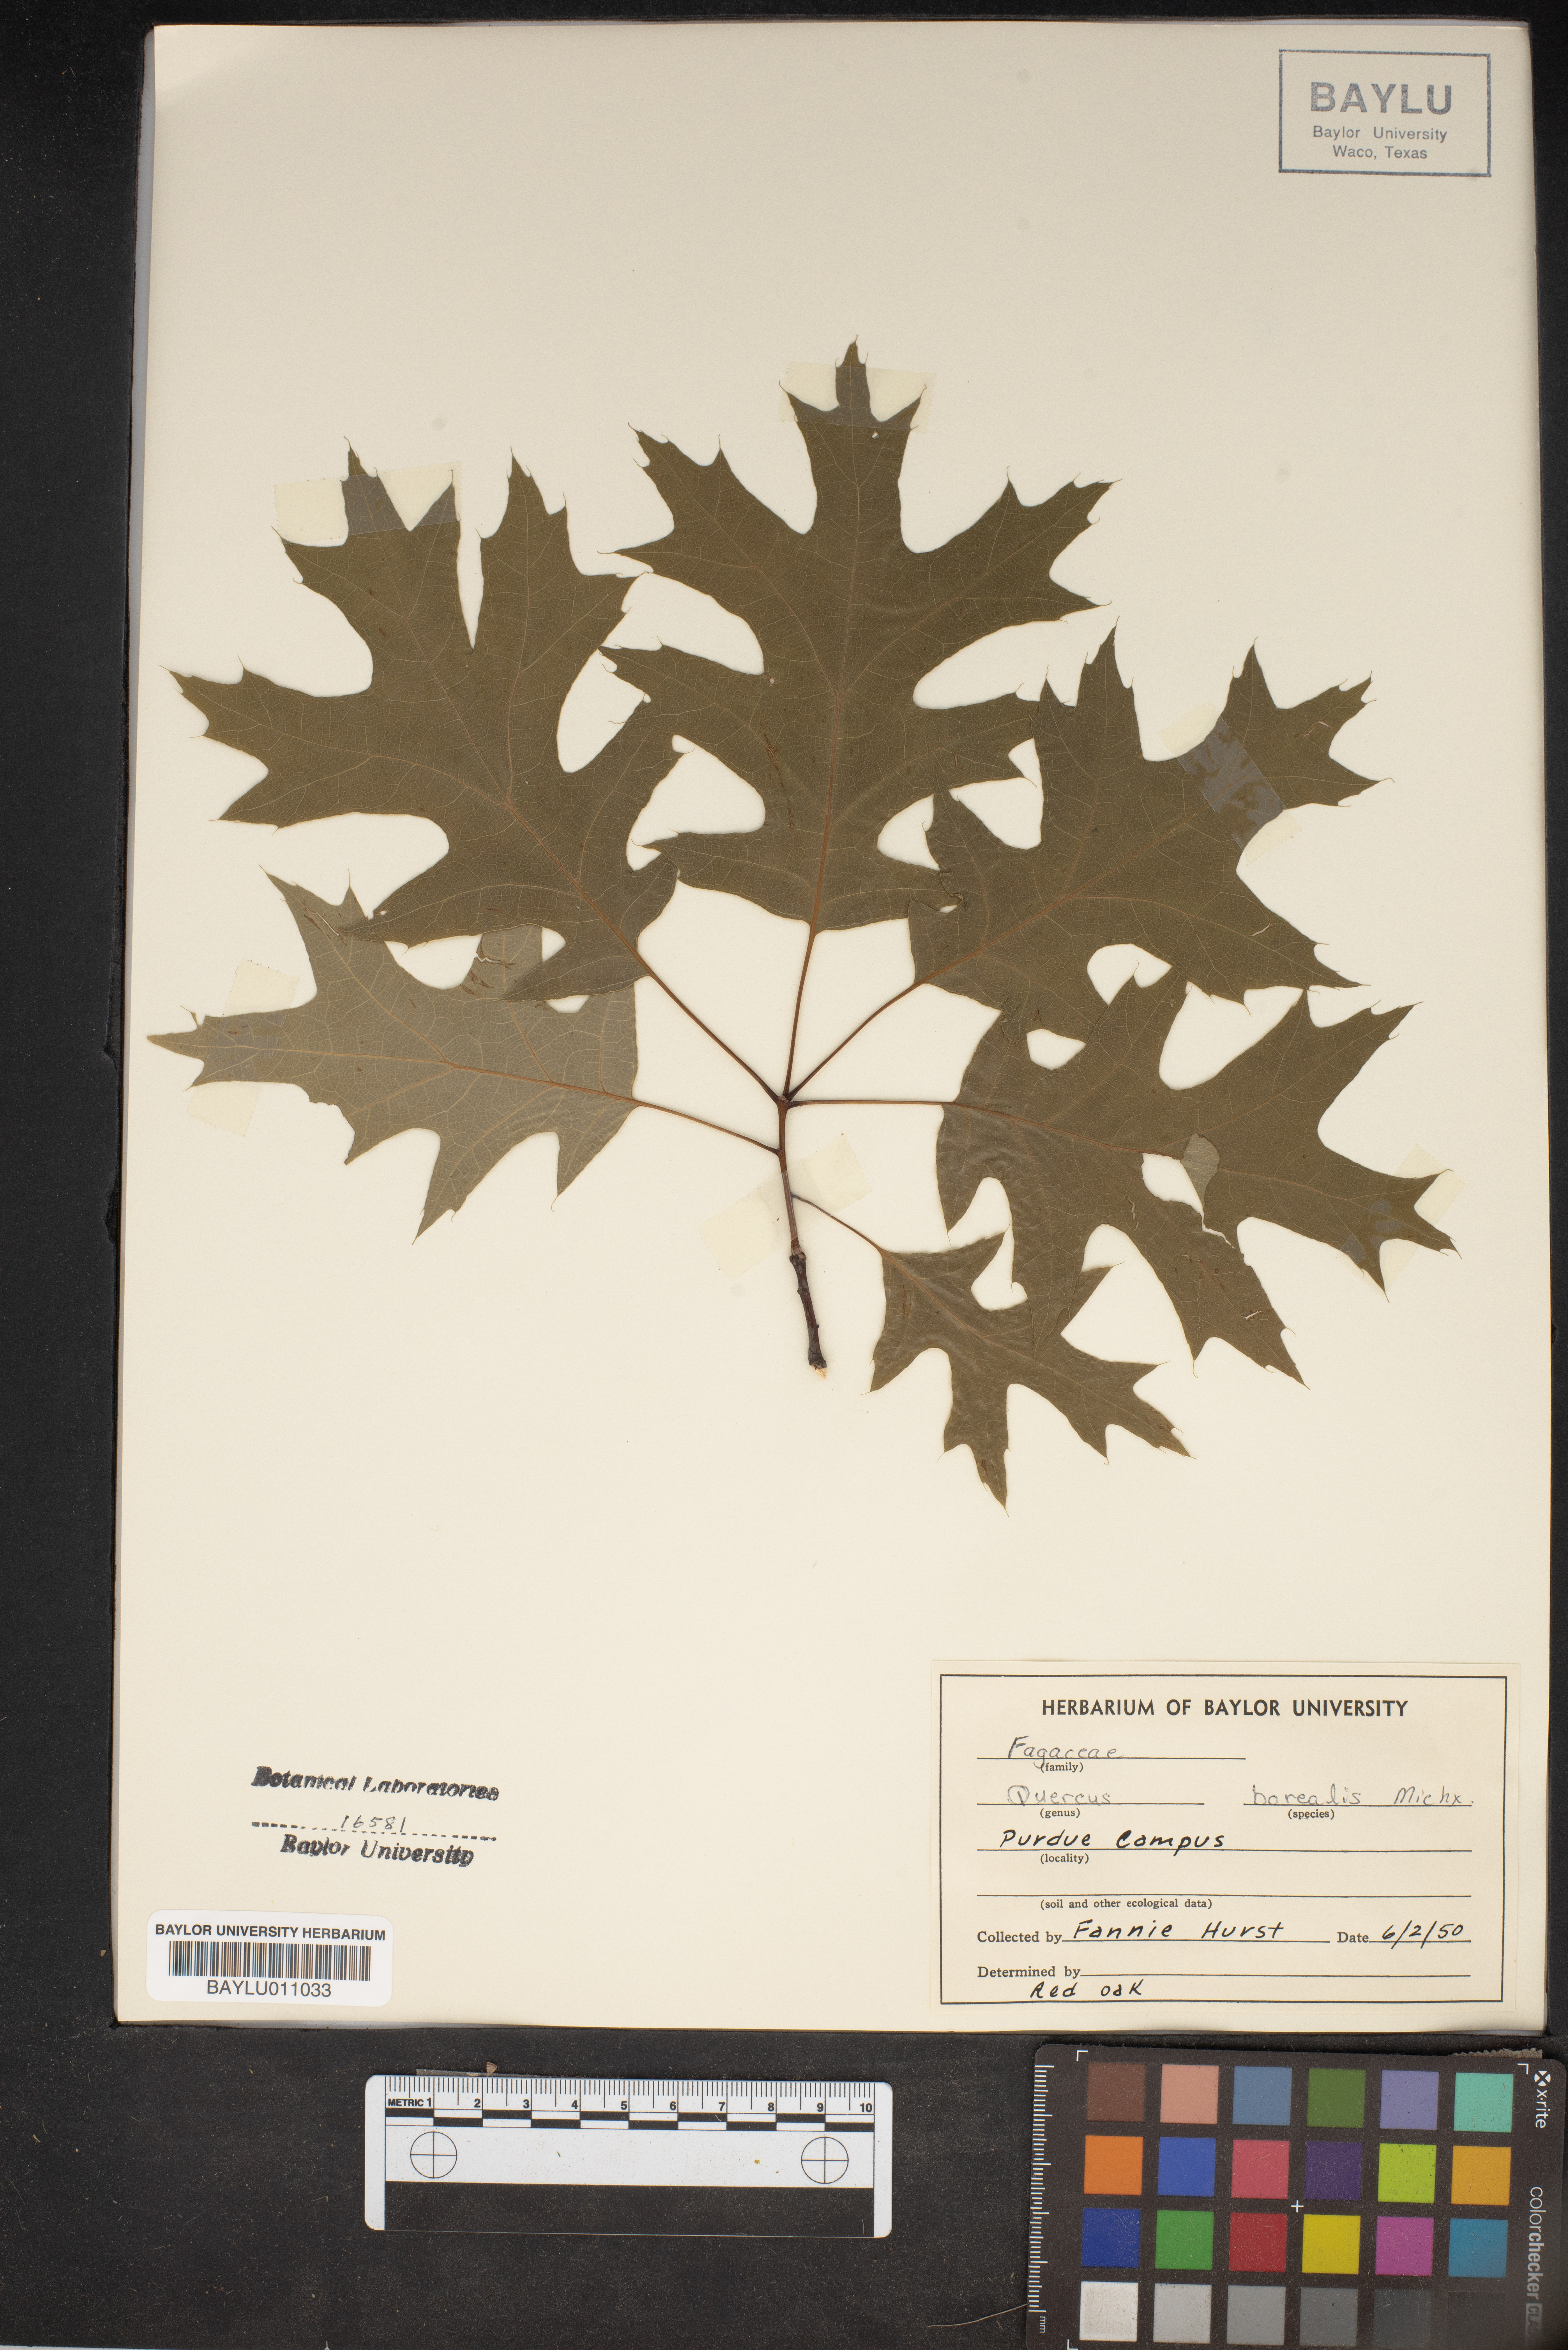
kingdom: Plantae
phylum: Tracheophyta
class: Magnoliopsida
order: Fagales
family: Fagaceae
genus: Quercus
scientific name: Quercus rubra
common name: Red oak
